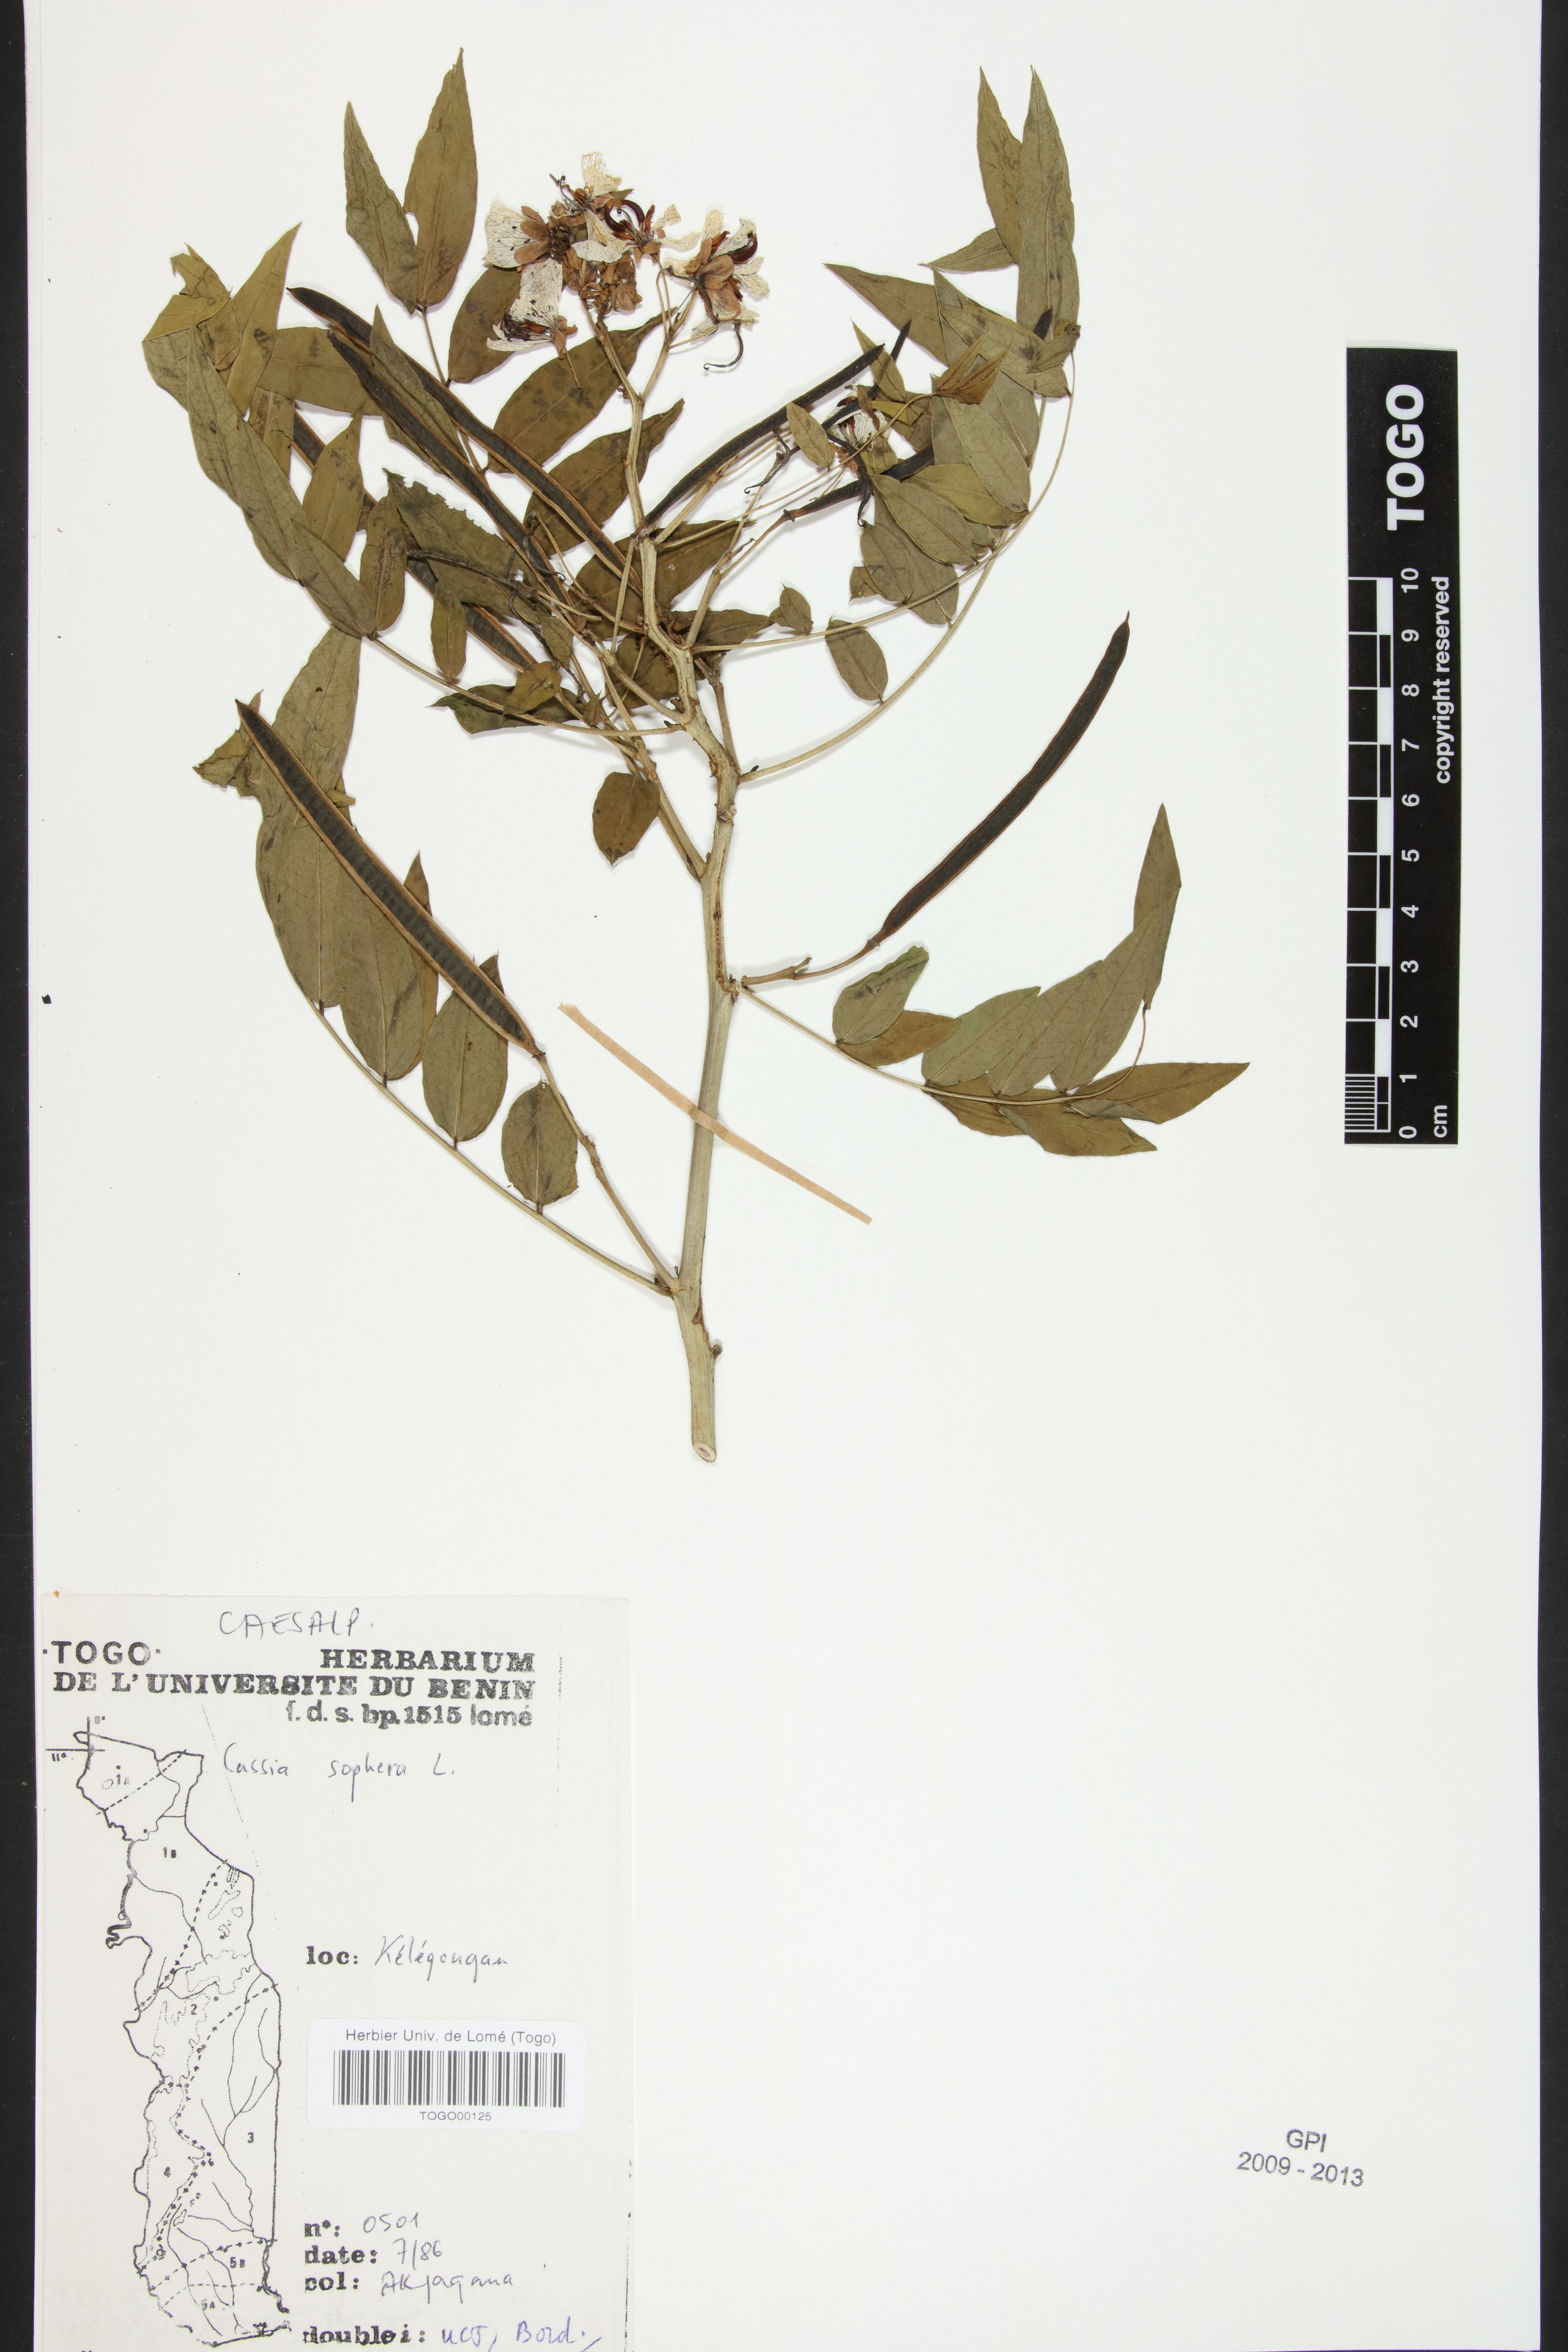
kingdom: Plantae
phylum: Tracheophyta
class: Magnoliopsida
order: Fabales
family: Fabaceae
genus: Senna
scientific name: Senna sophera
